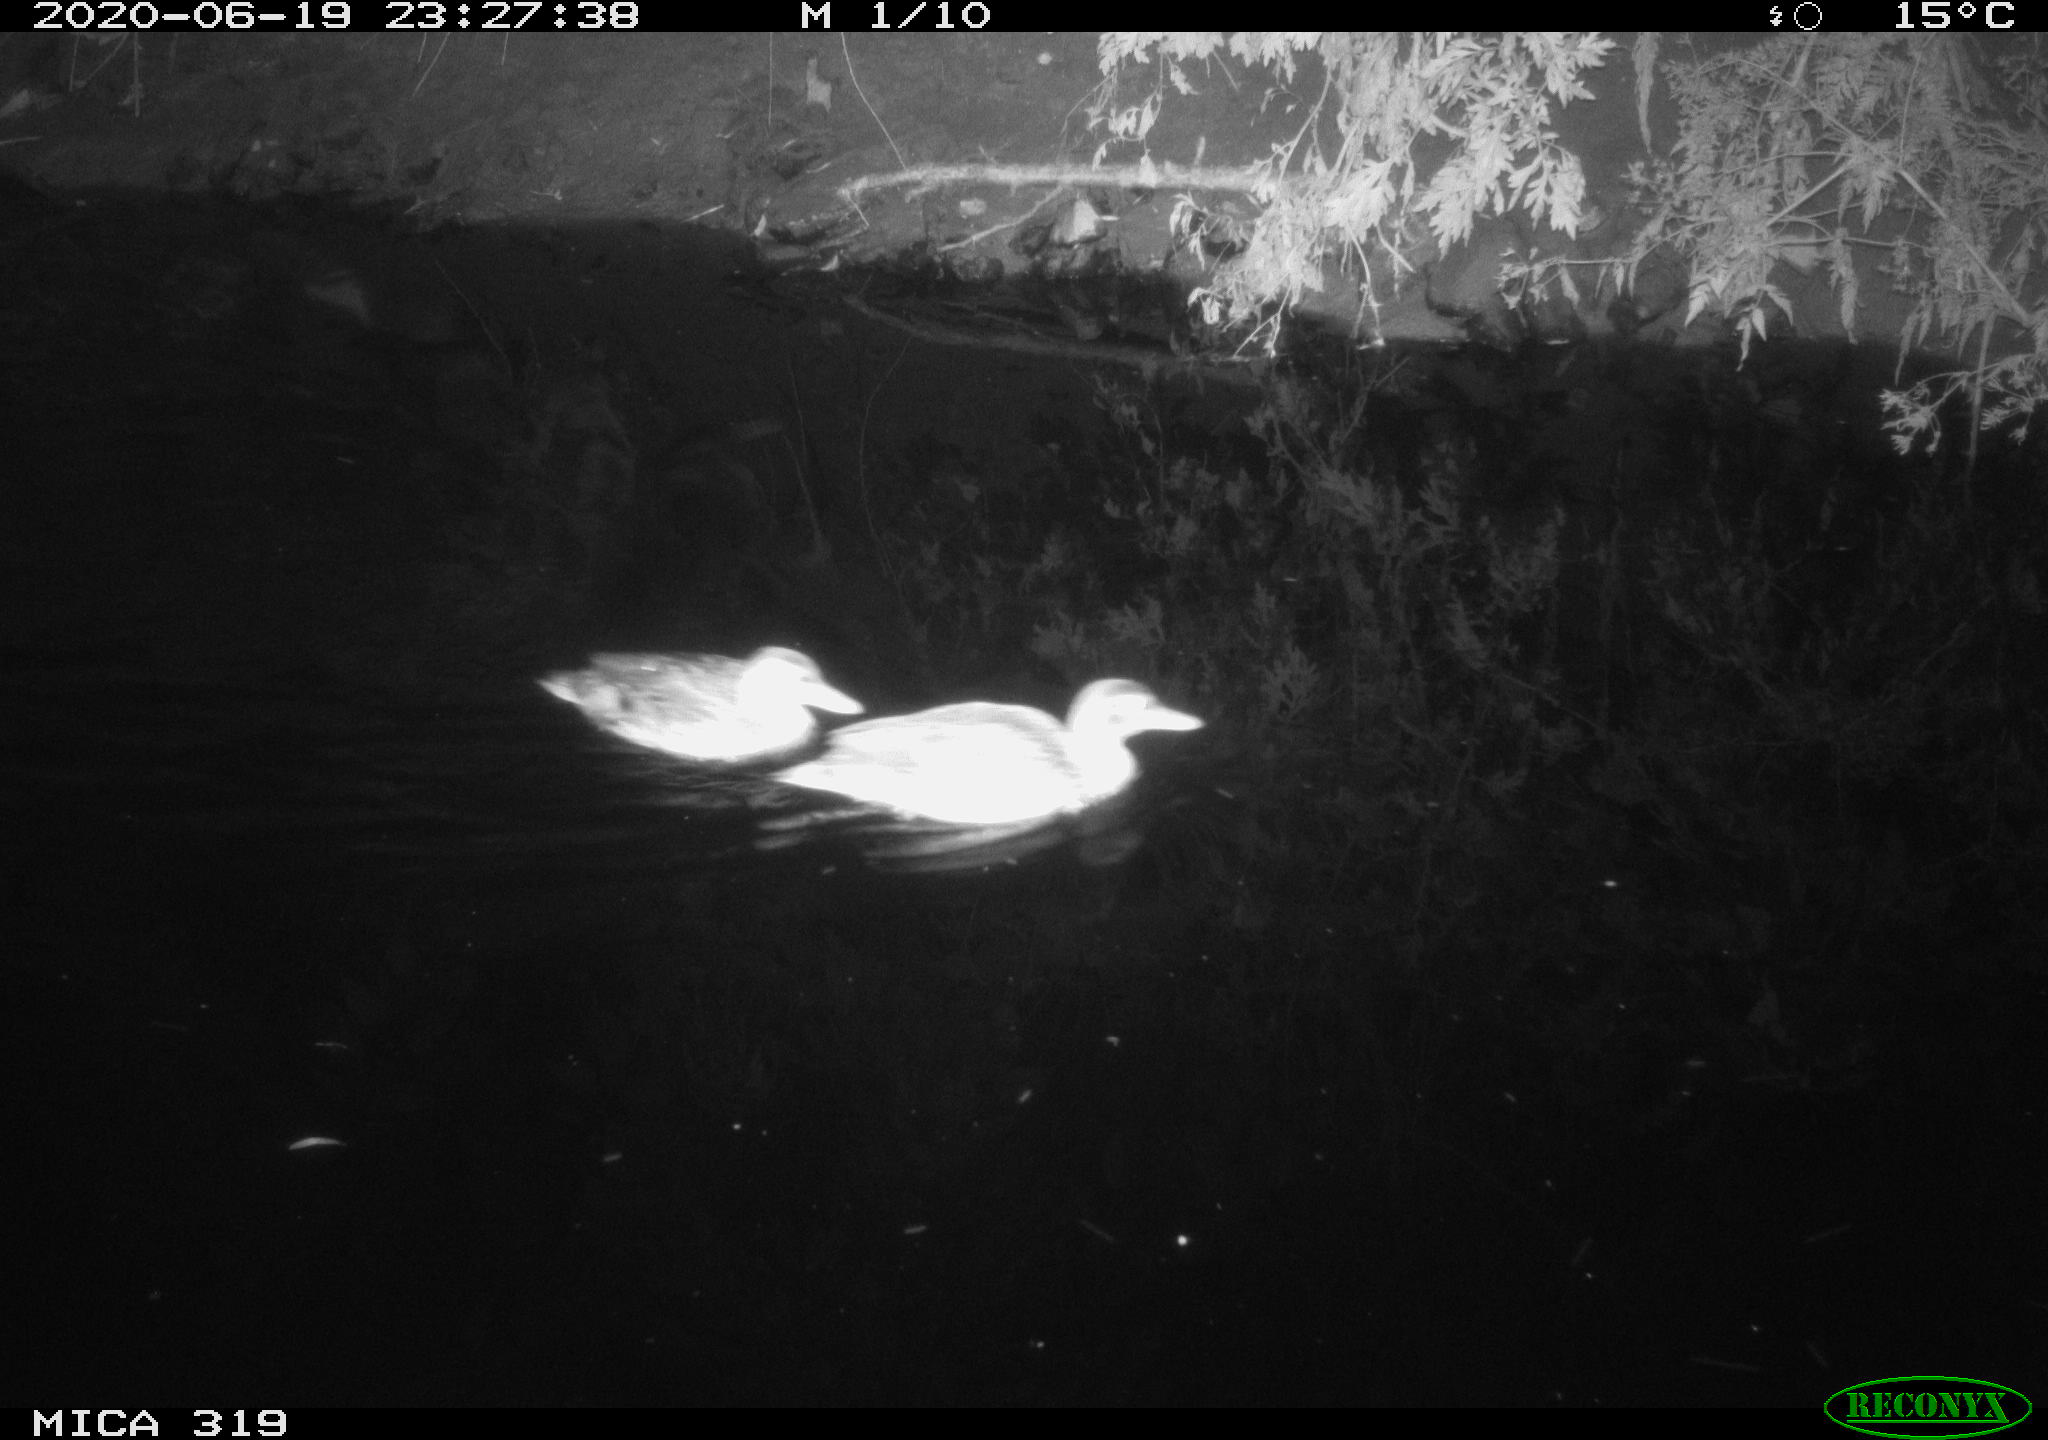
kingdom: Animalia
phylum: Chordata
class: Aves
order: Anseriformes
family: Anatidae
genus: Anas
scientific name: Anas platyrhynchos
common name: Mallard
